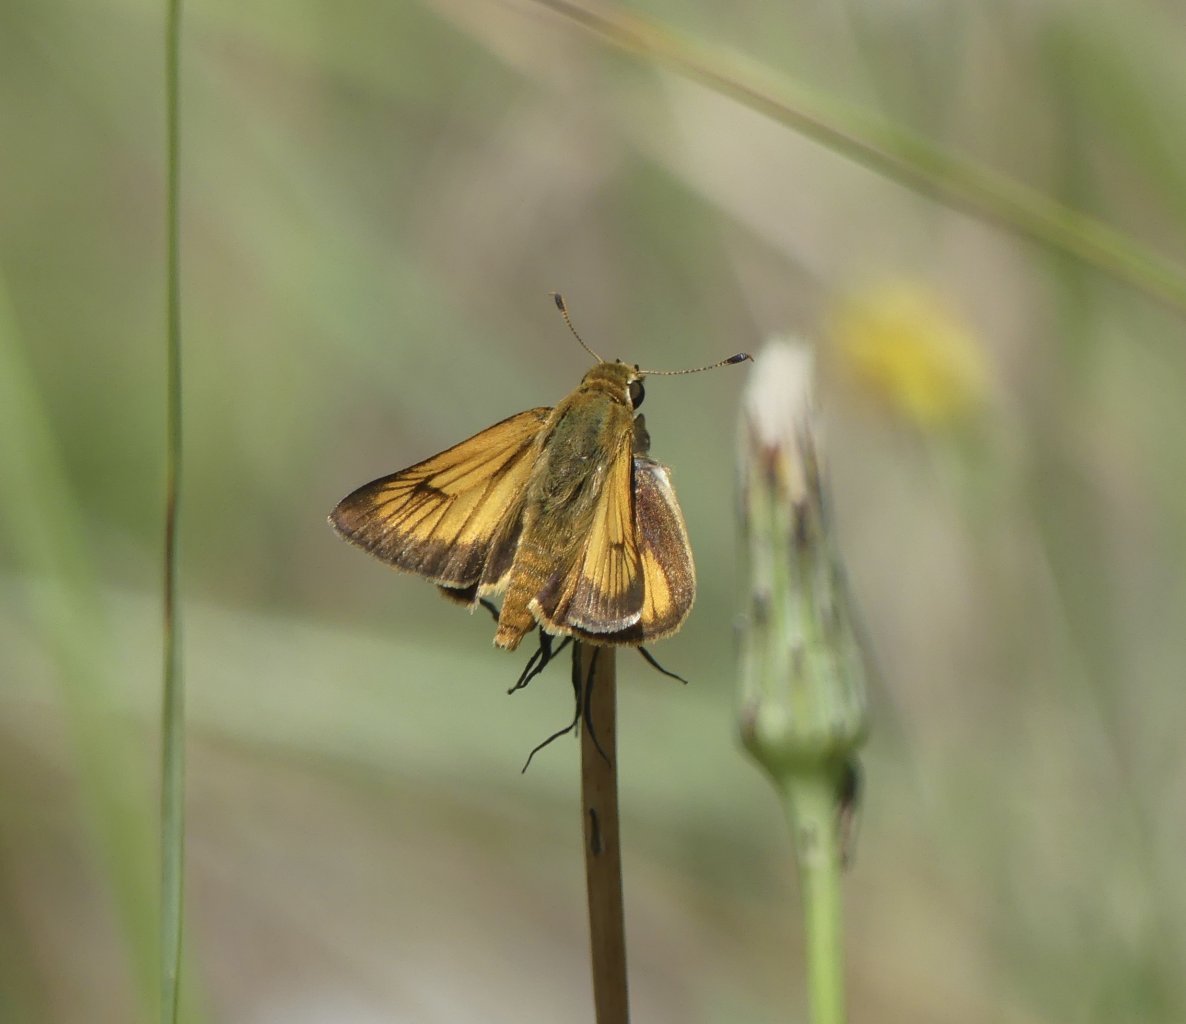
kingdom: Animalia
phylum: Arthropoda
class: Insecta
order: Lepidoptera
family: Hesperiidae
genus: Atrytone
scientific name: Atrytone delaware
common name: Delaware Skipper
